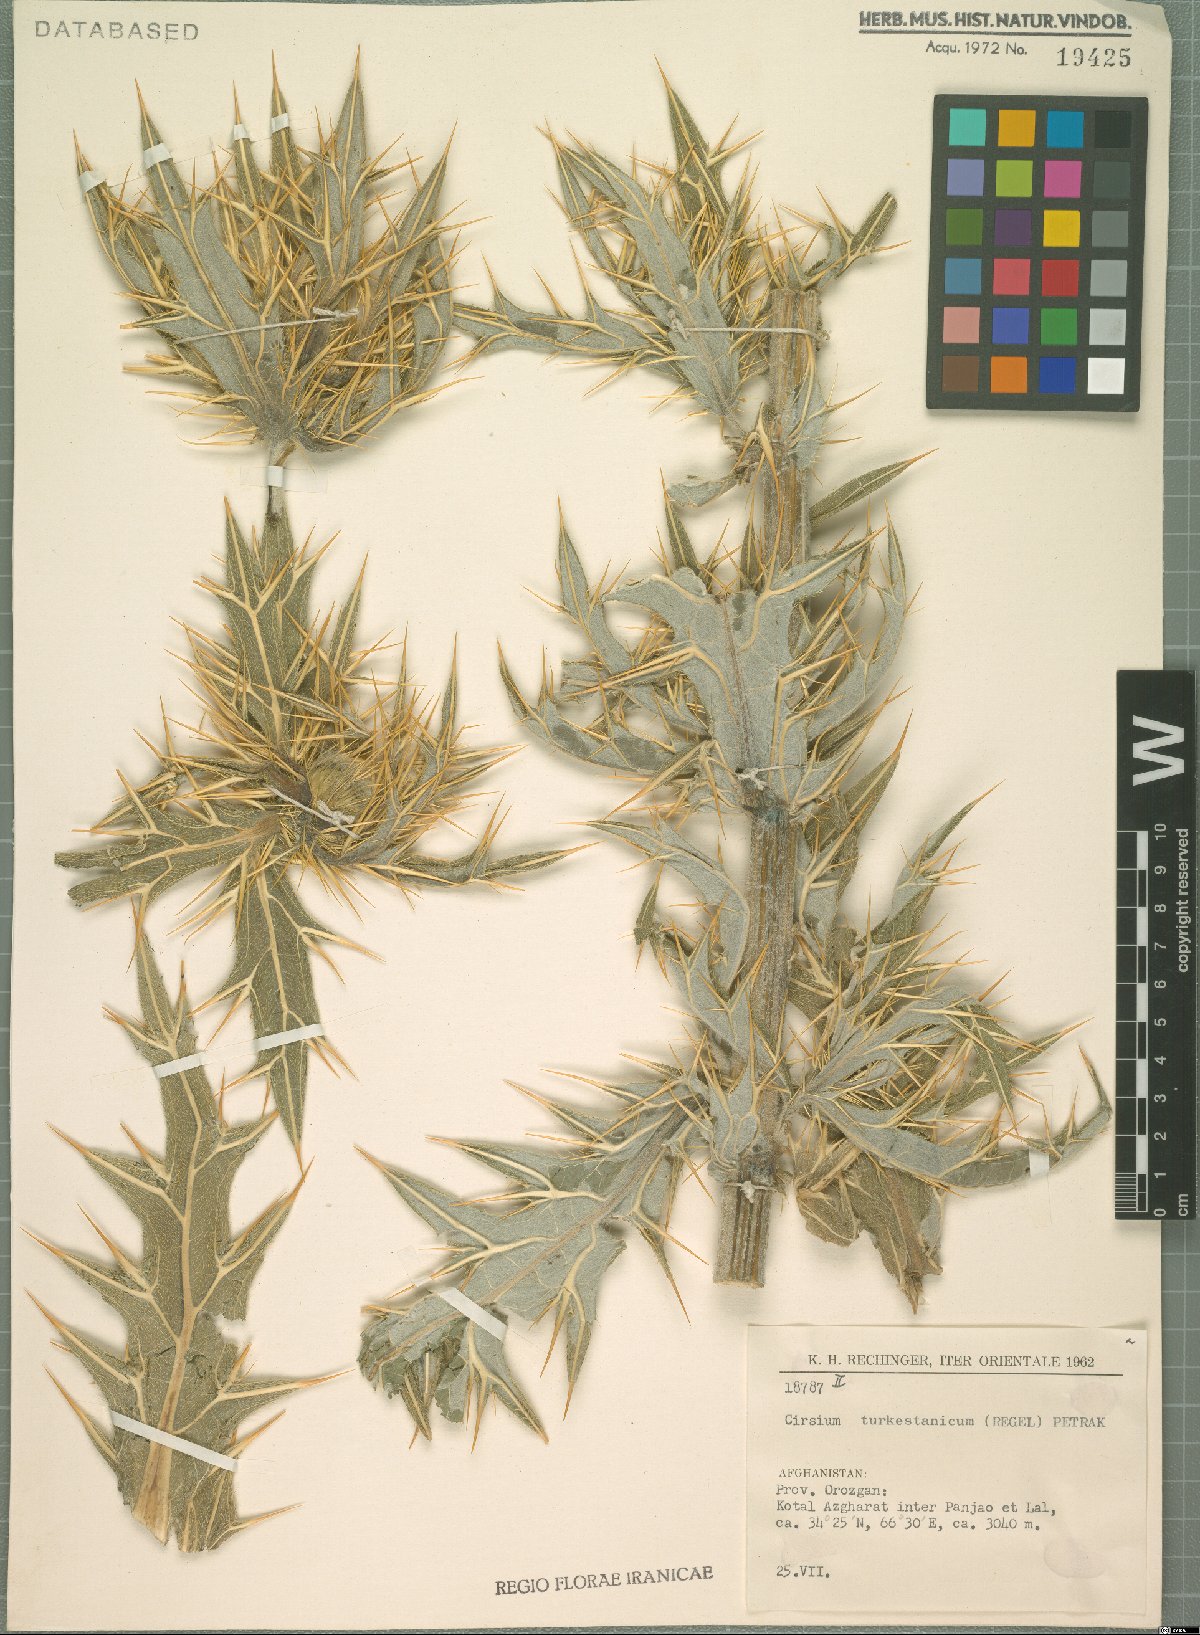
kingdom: Plantae
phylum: Tracheophyta
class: Magnoliopsida
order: Asterales
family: Asteraceae
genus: Lophiolepis
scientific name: Lophiolepis turkestanica
